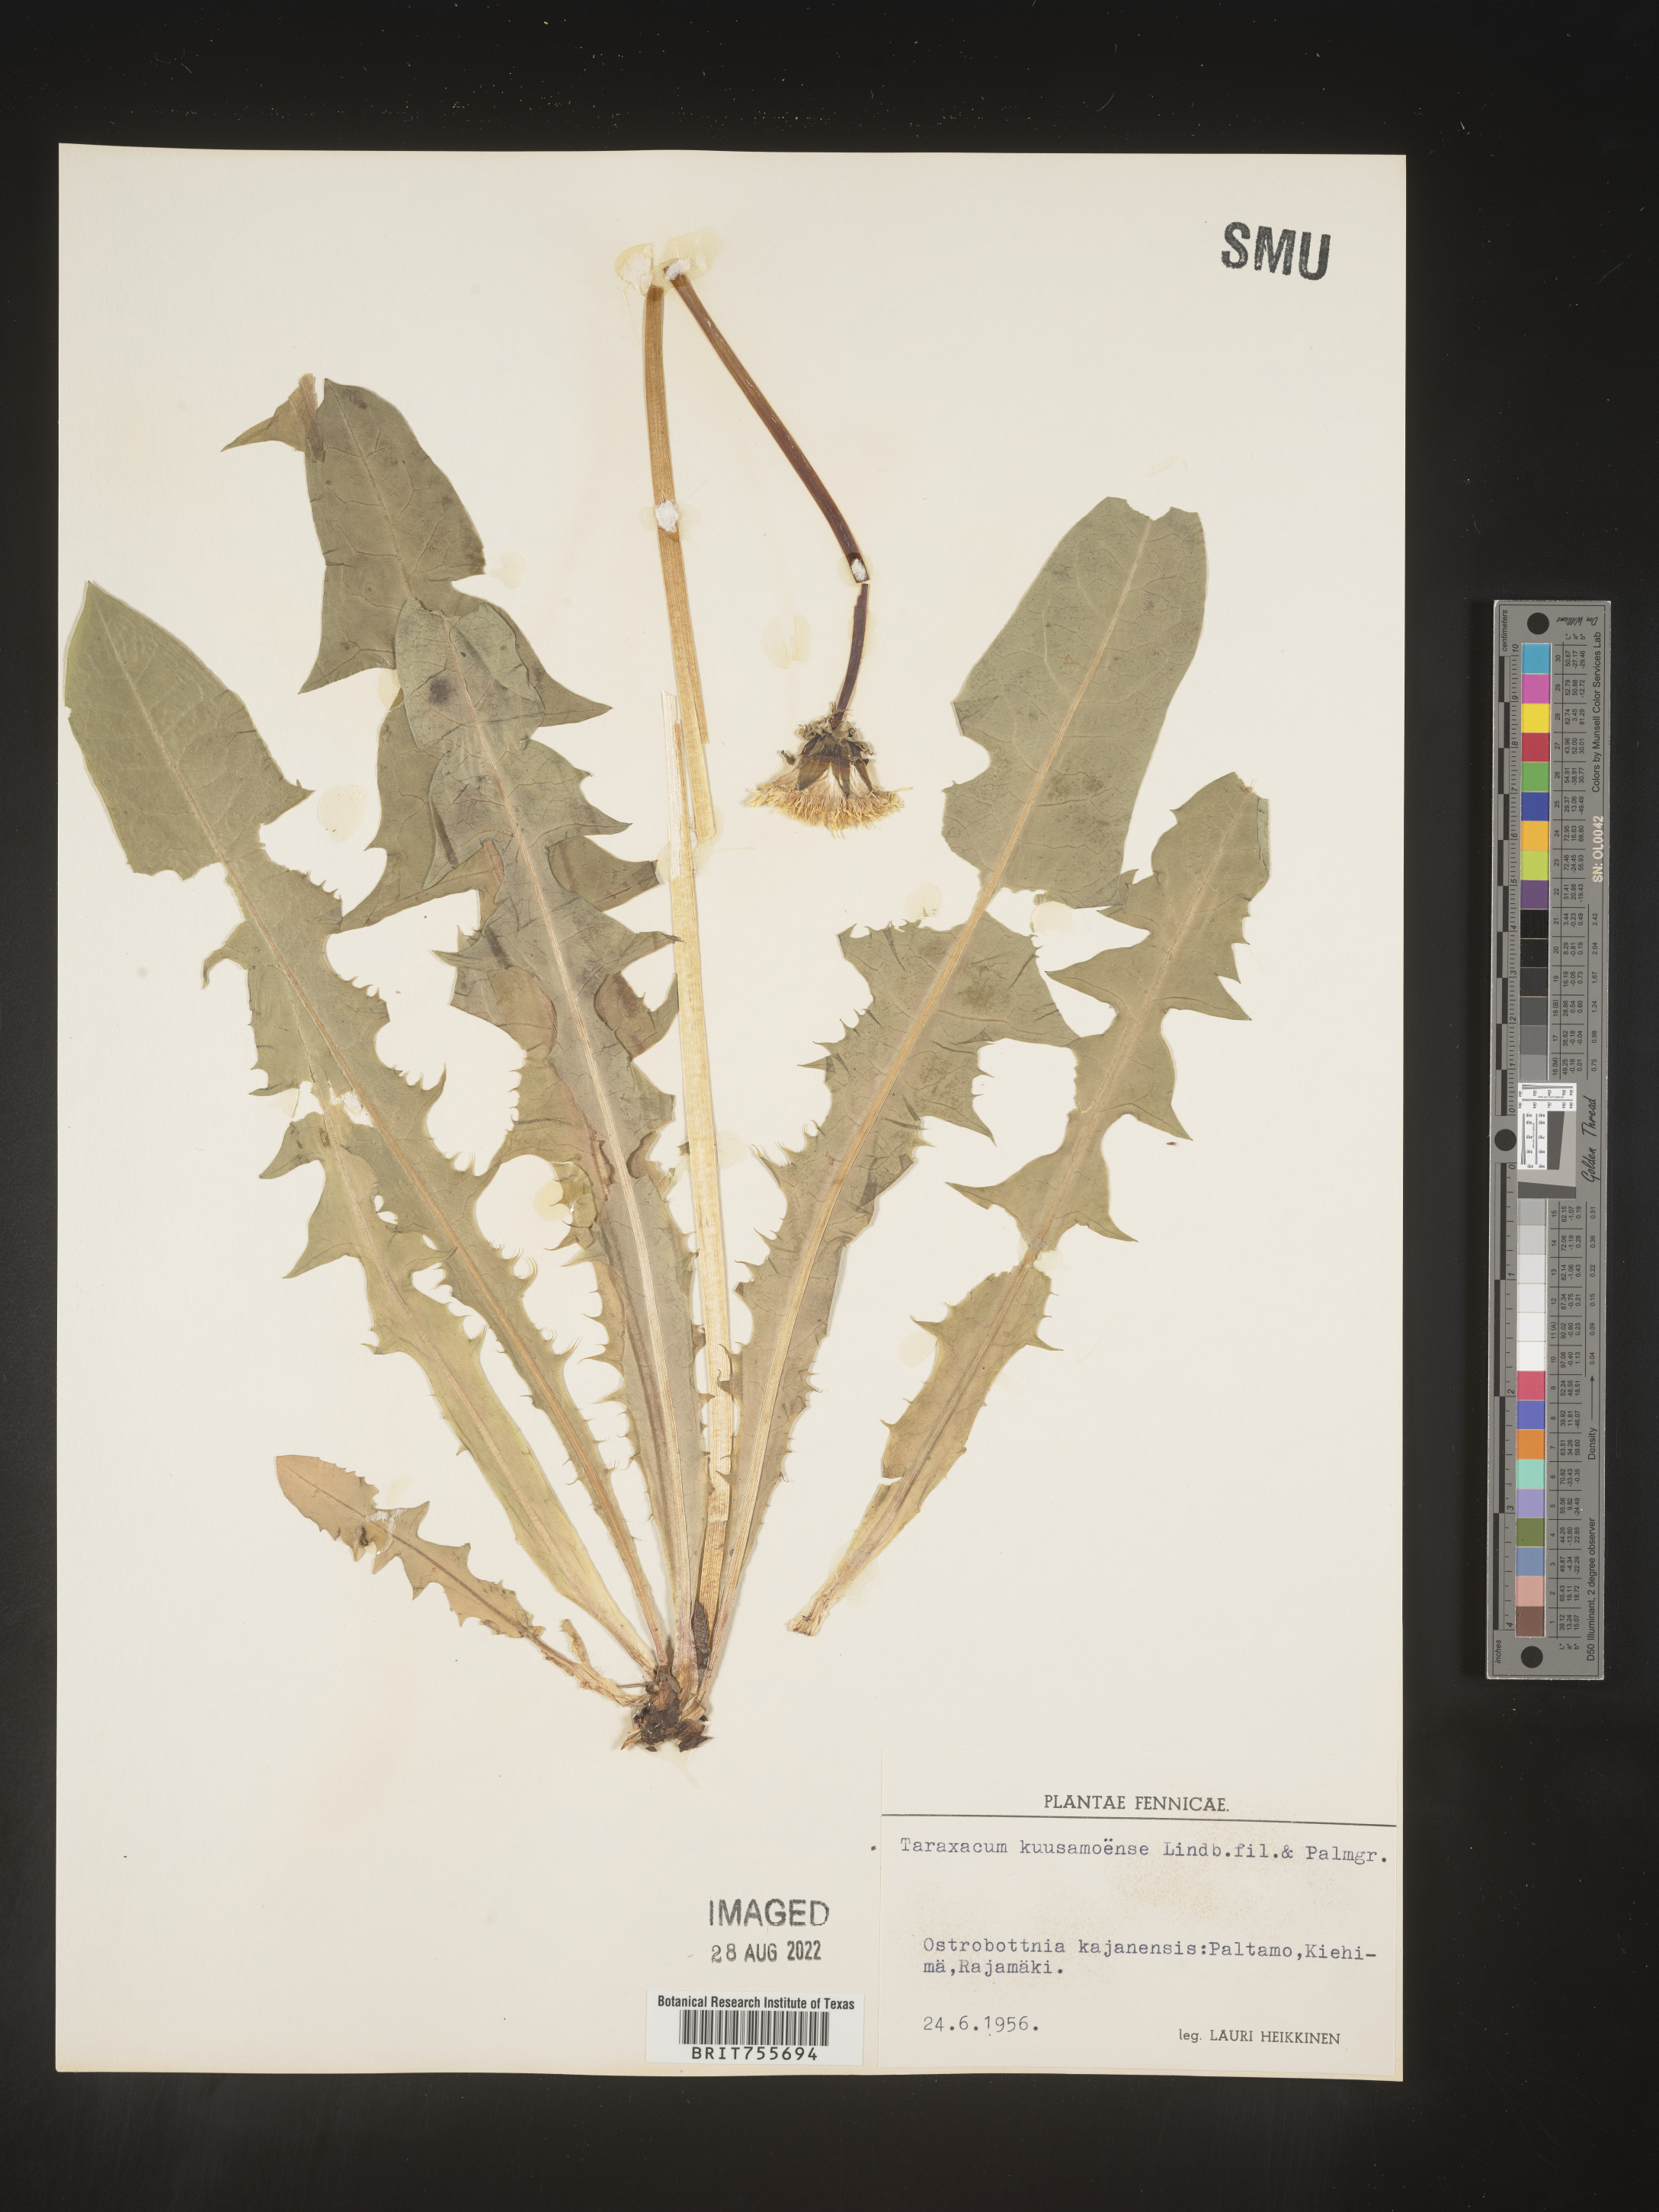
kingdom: Plantae
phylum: Tracheophyta
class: Magnoliopsida
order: Asterales
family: Asteraceae
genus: Taraxacum
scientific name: Taraxacum
